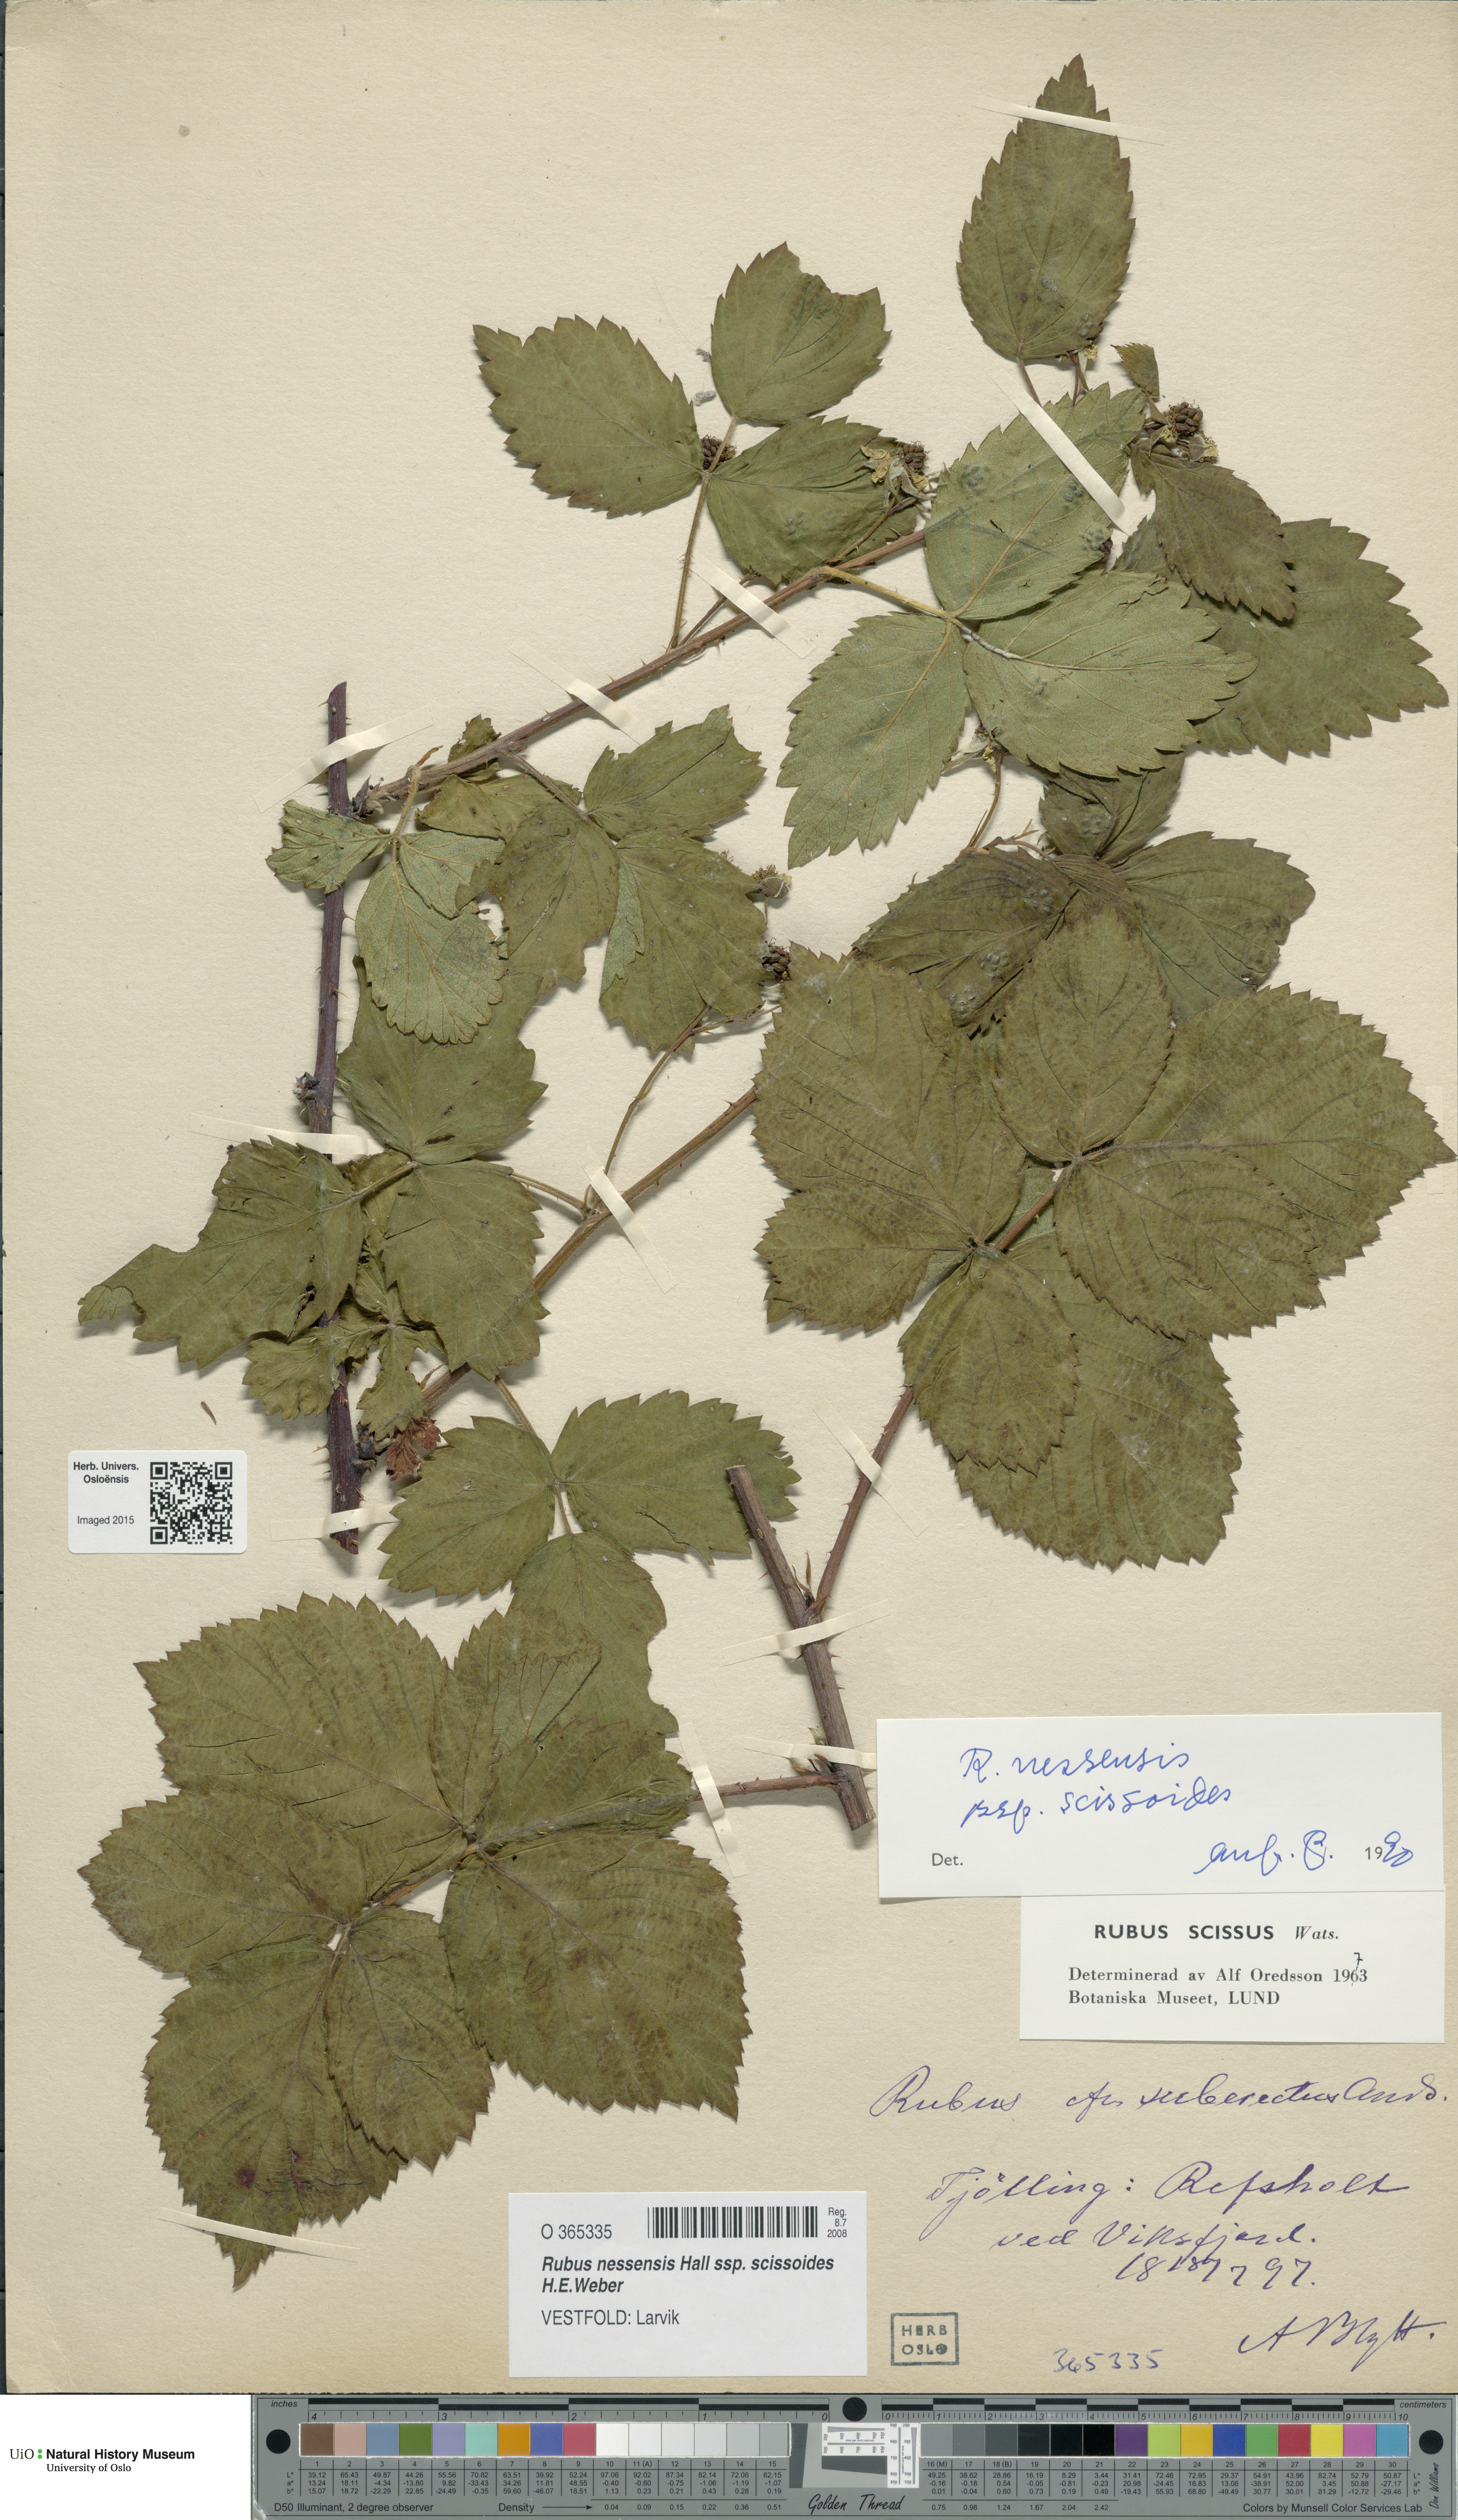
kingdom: Plantae
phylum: Tracheophyta
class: Magnoliopsida
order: Rosales
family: Rosaceae
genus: Rubus
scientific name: Rubus scissus
